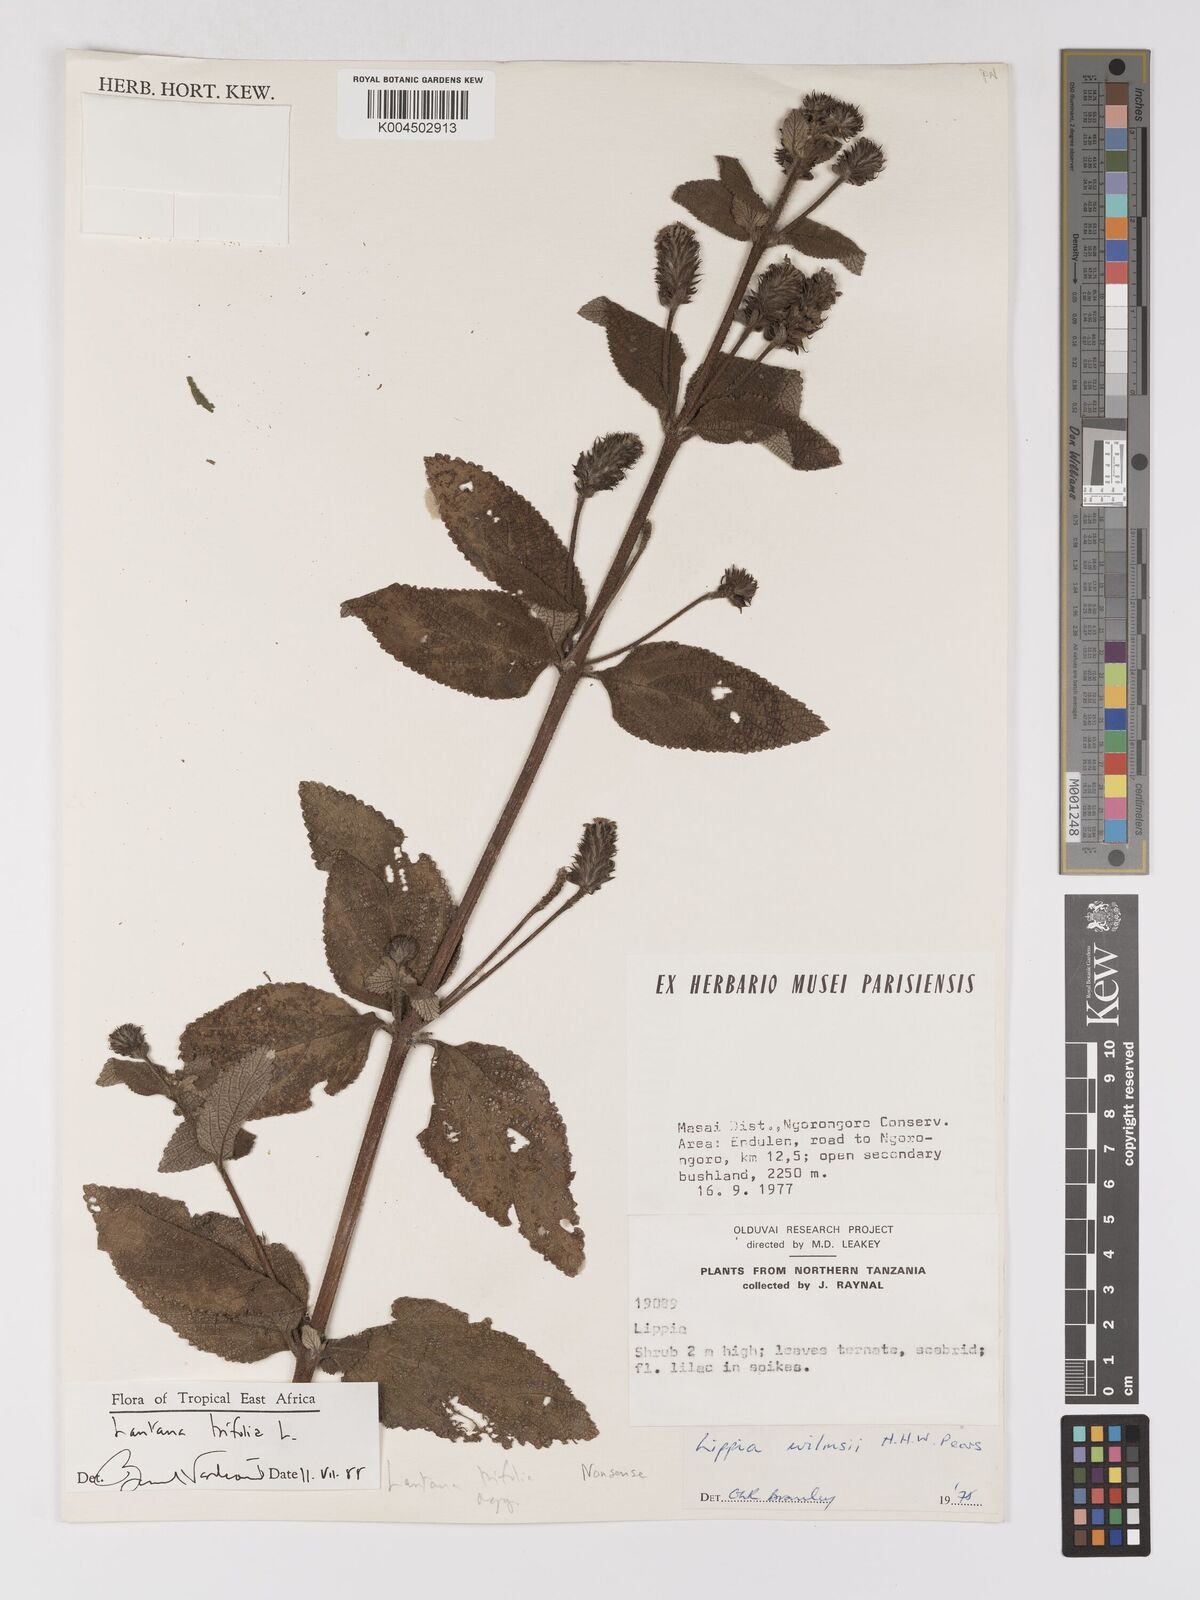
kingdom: Plantae
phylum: Tracheophyta
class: Magnoliopsida
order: Lamiales
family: Verbenaceae
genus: Lantana
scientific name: Lantana trifolia
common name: Sweet-sage
